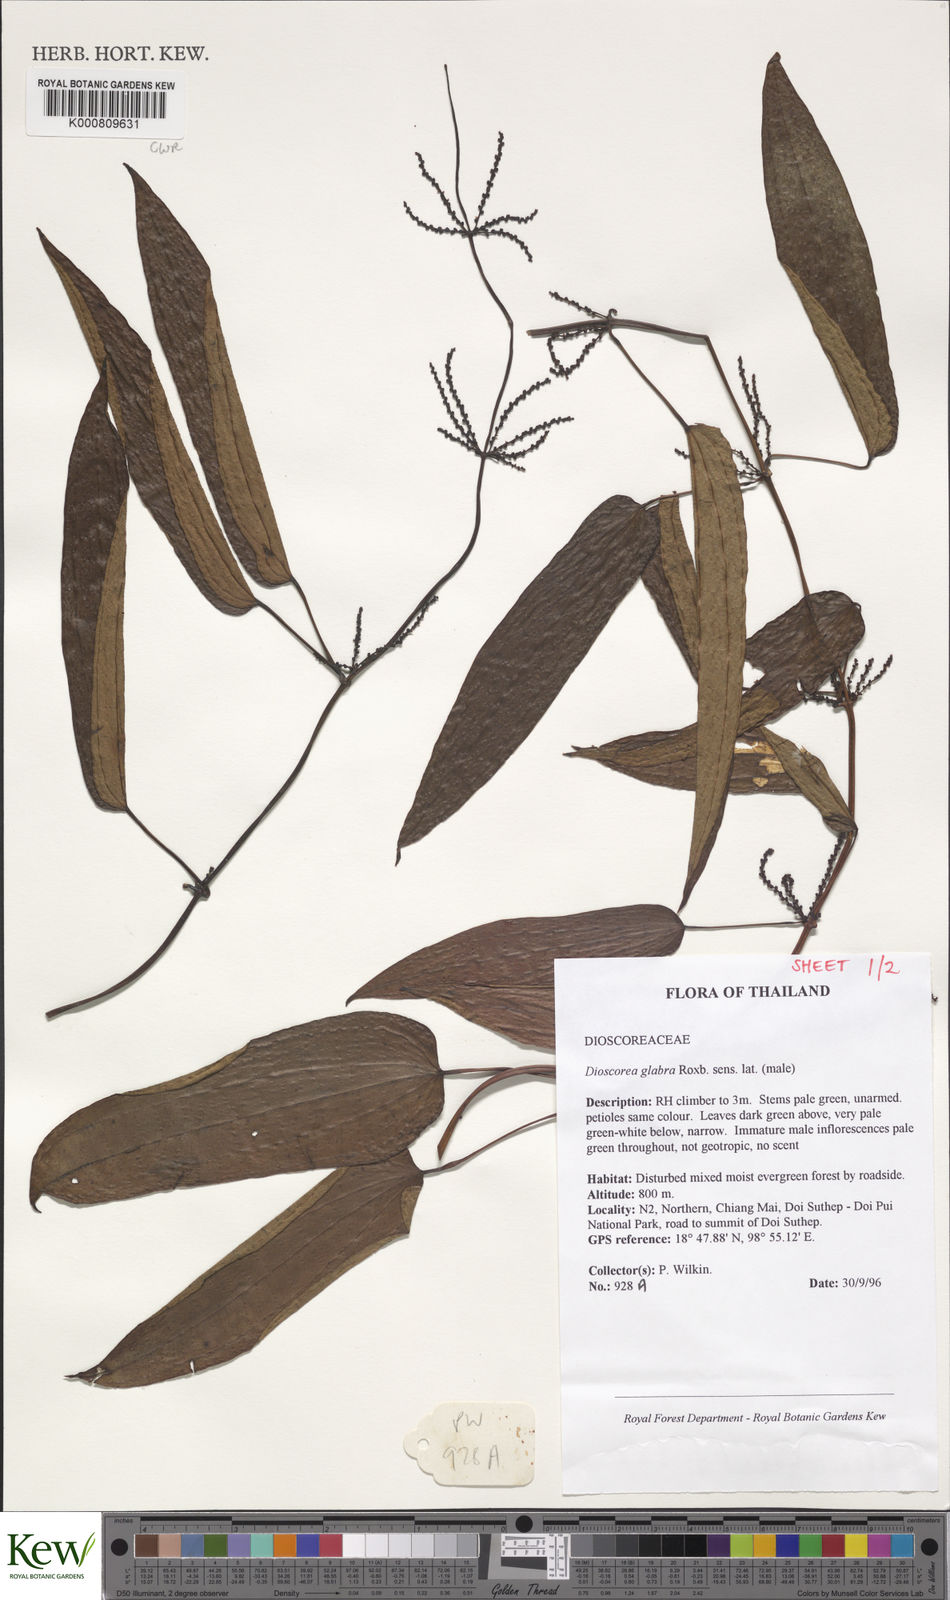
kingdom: Plantae
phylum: Tracheophyta
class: Liliopsida
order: Dioscoreales
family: Dioscoreaceae
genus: Dioscorea
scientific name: Dioscorea glabra
